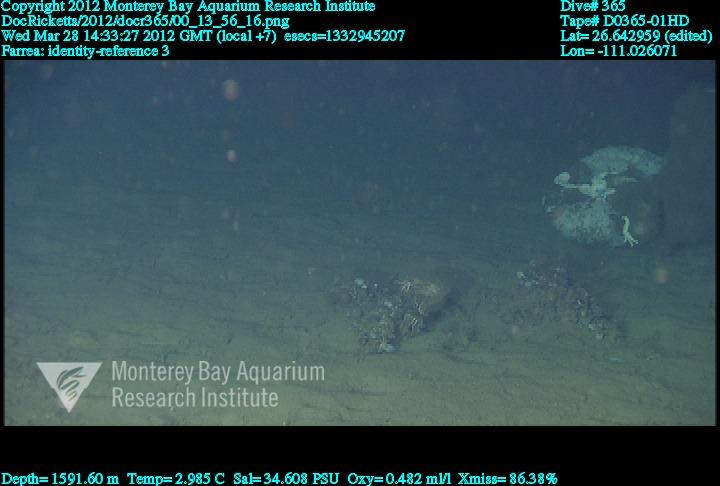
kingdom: Animalia
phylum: Porifera
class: Hexactinellida
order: Sceptrulophora
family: Farreidae
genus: Farrea
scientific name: Farrea
